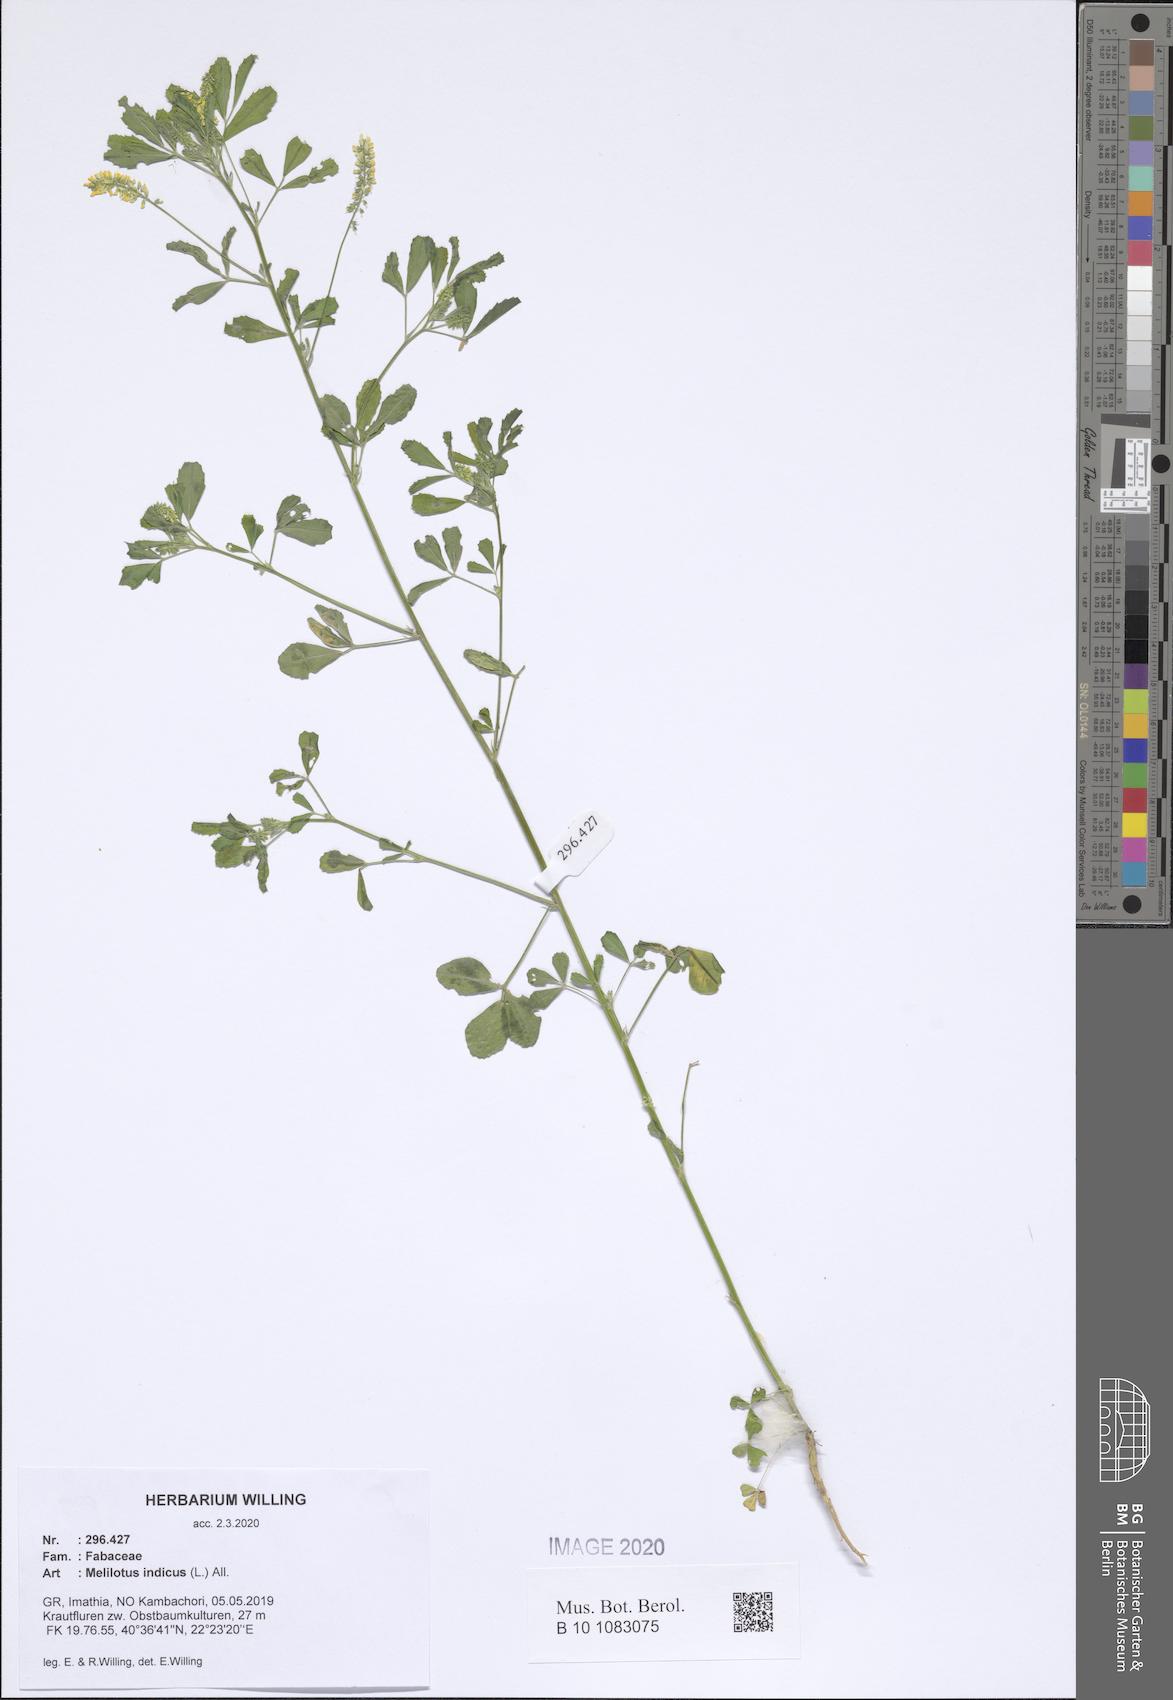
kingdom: Plantae
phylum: Tracheophyta
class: Magnoliopsida
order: Fabales
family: Fabaceae
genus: Melilotus
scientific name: Melilotus indicus
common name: Small melilot
